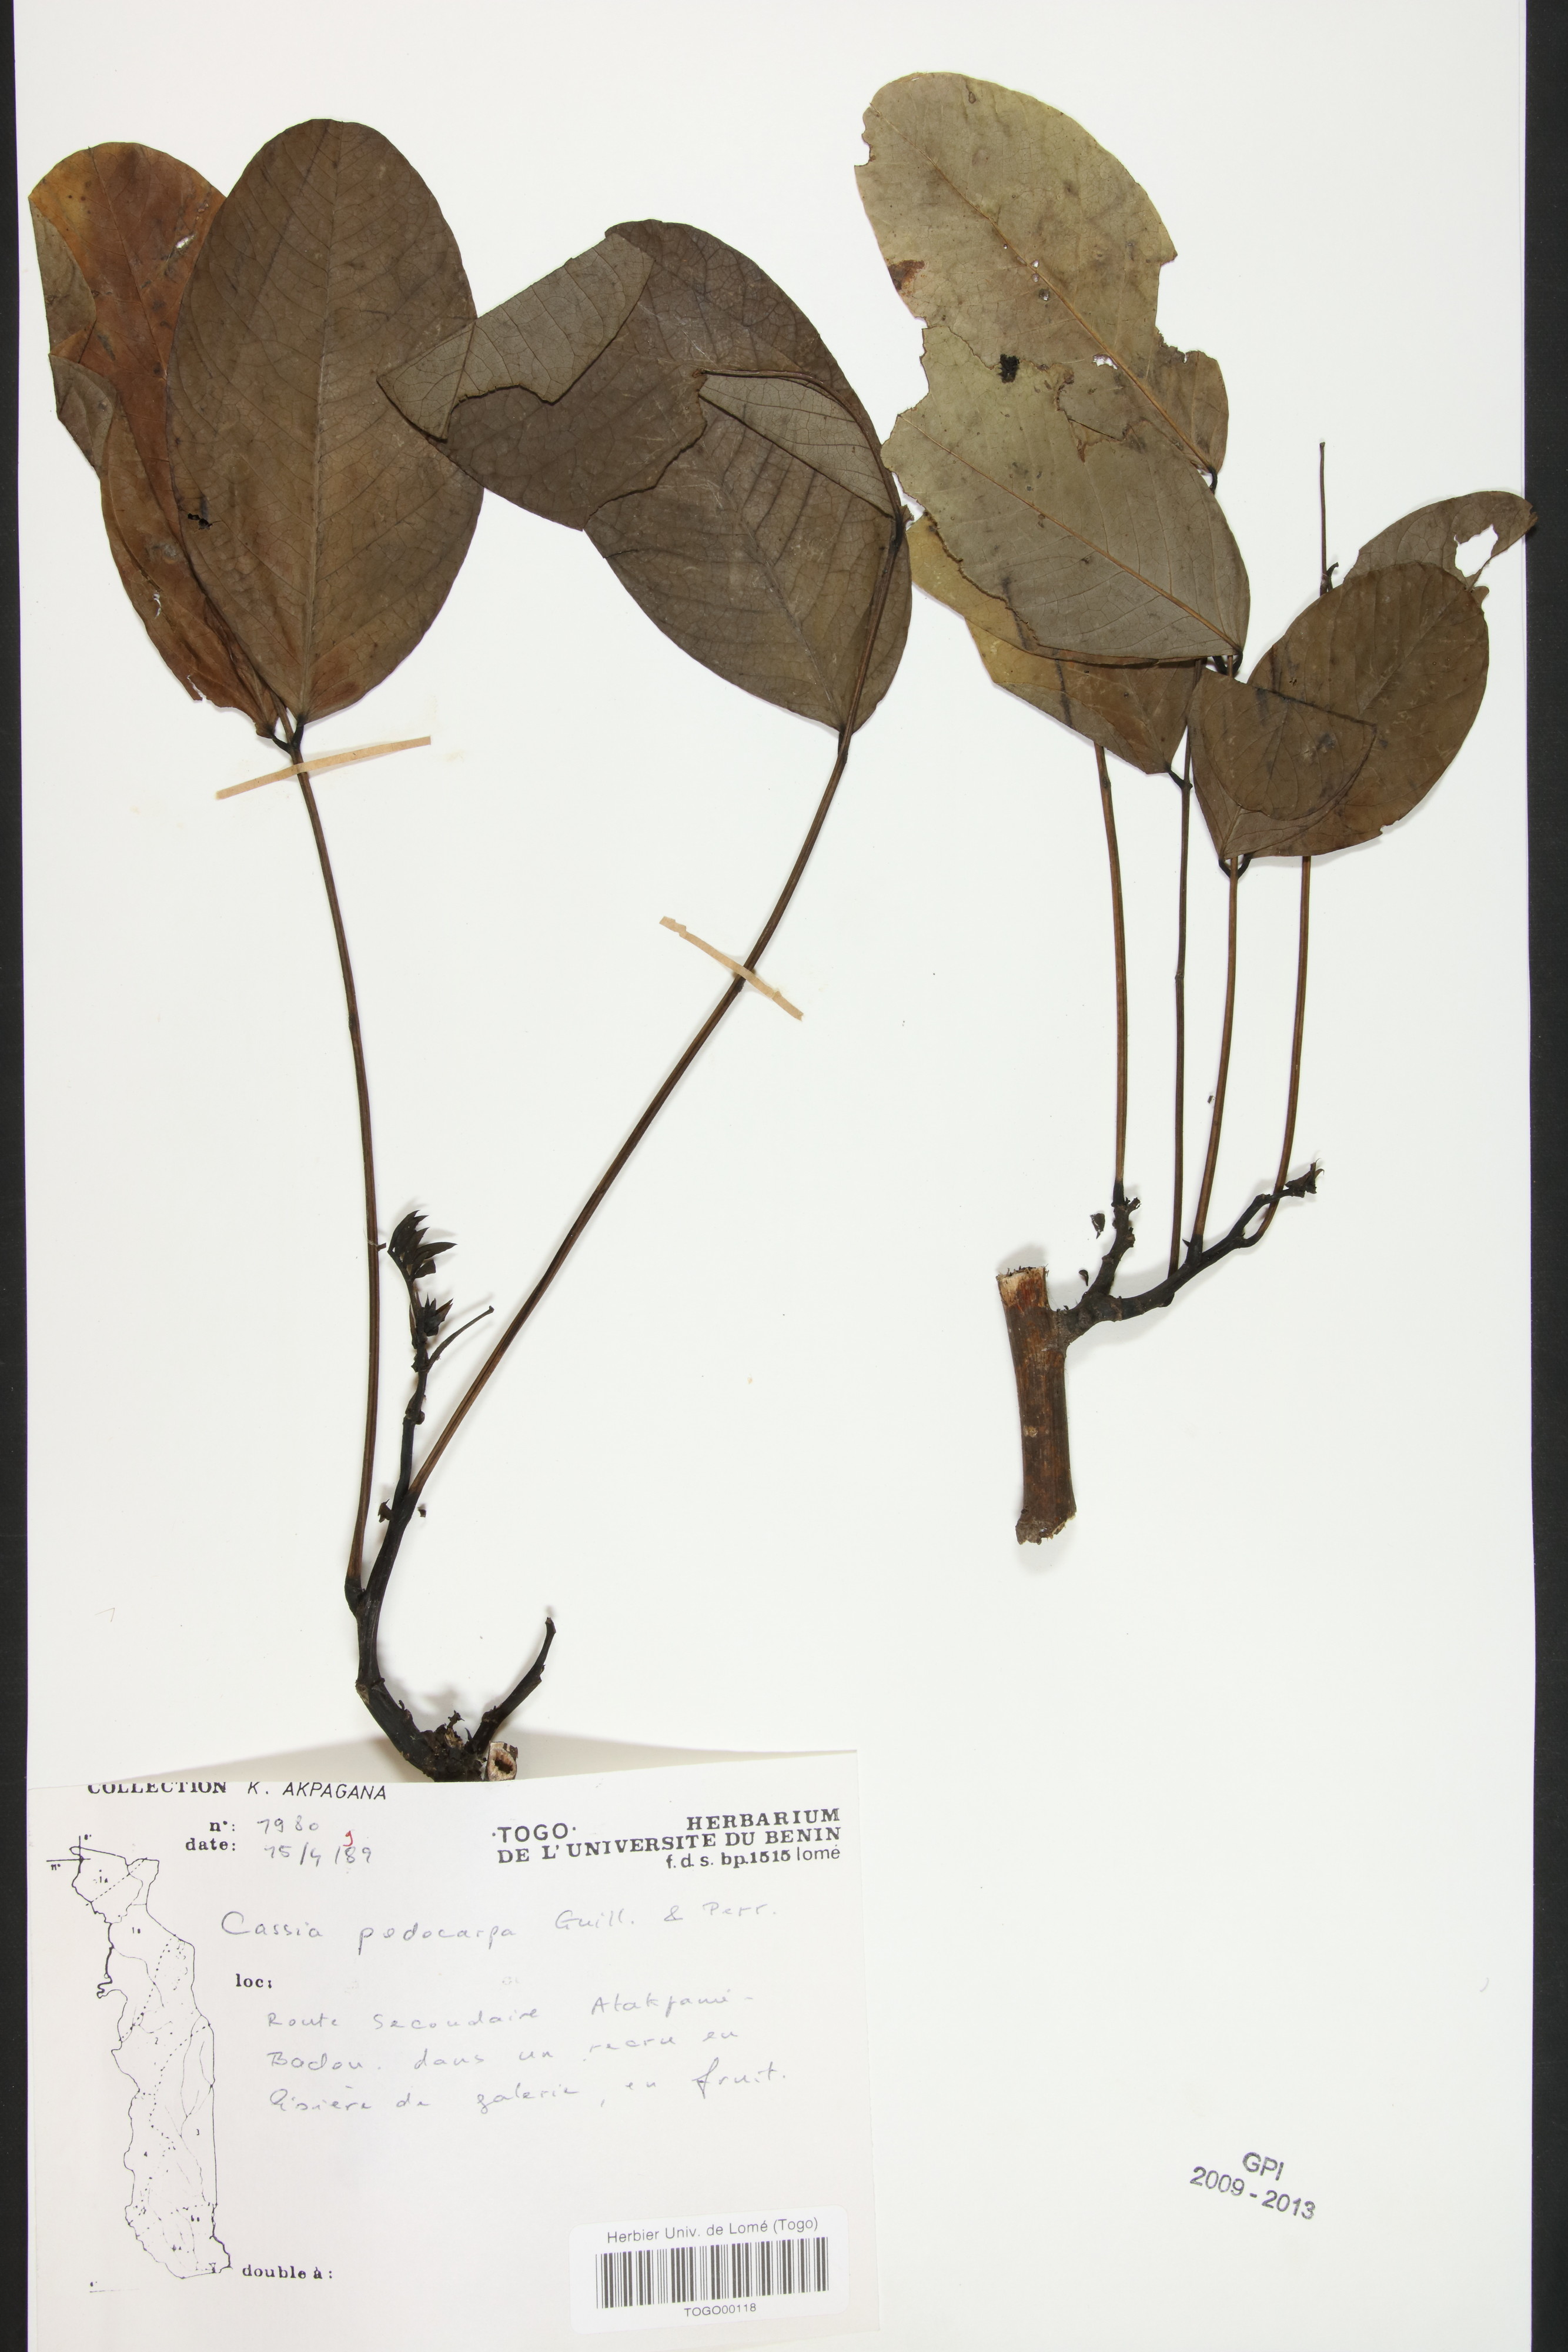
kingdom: Plantae
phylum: Tracheophyta
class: Magnoliopsida
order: Fabales
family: Fabaceae
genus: Senna
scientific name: Senna podocarpa
